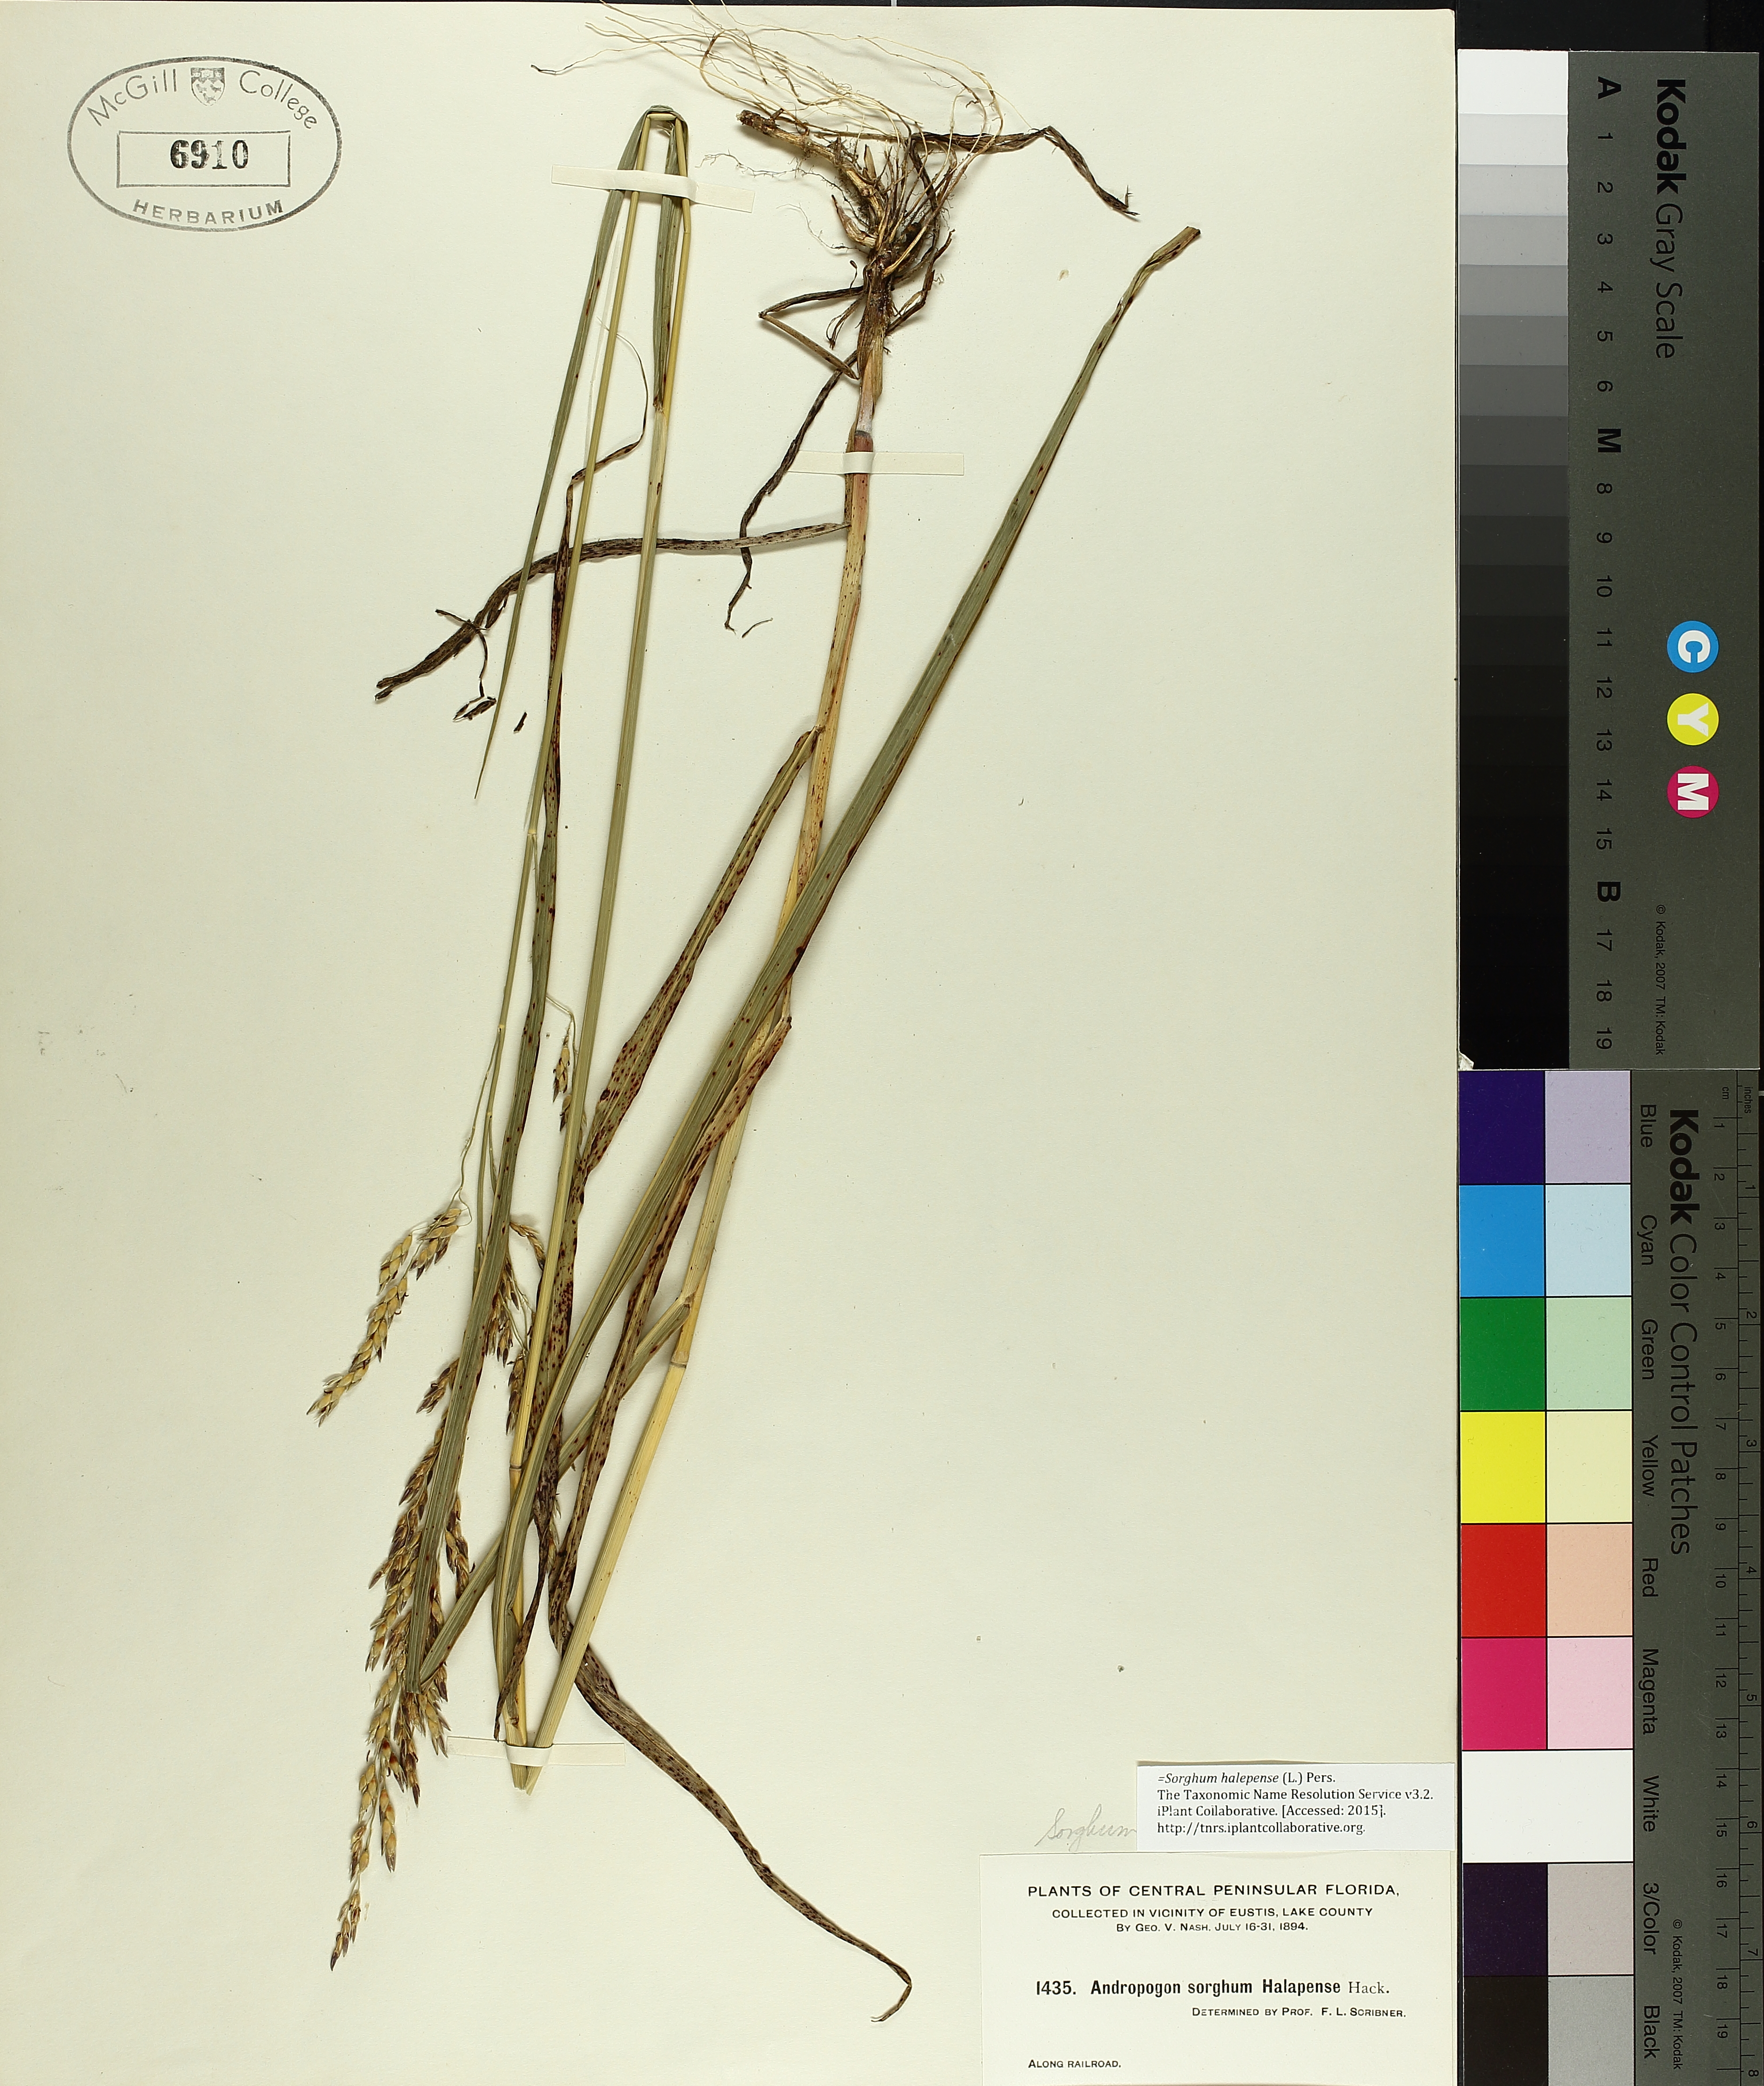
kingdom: Plantae
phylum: Tracheophyta
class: Liliopsida
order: Poales
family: Poaceae
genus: Sorghum
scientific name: Sorghum halepense
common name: Johnson-grass
